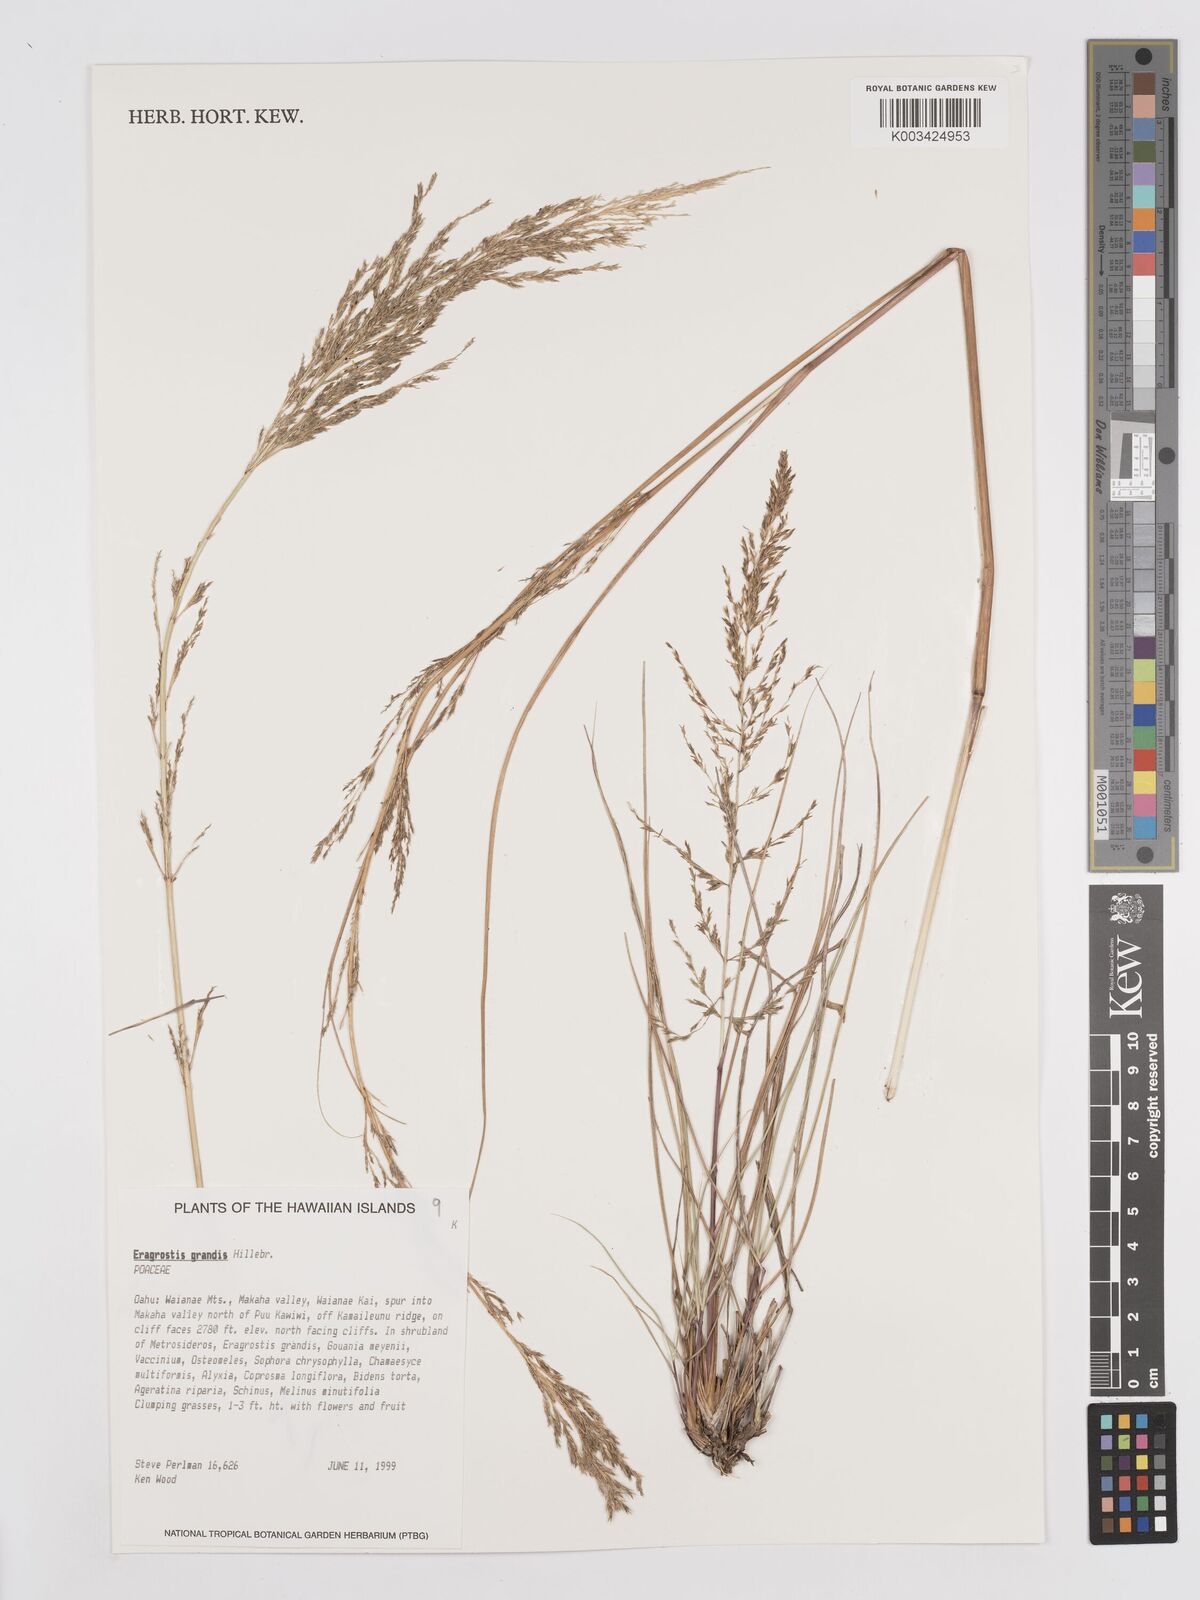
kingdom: Plantae
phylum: Tracheophyta
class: Liliopsida
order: Poales
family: Poaceae
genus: Eragrostis
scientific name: Eragrostis grandis
